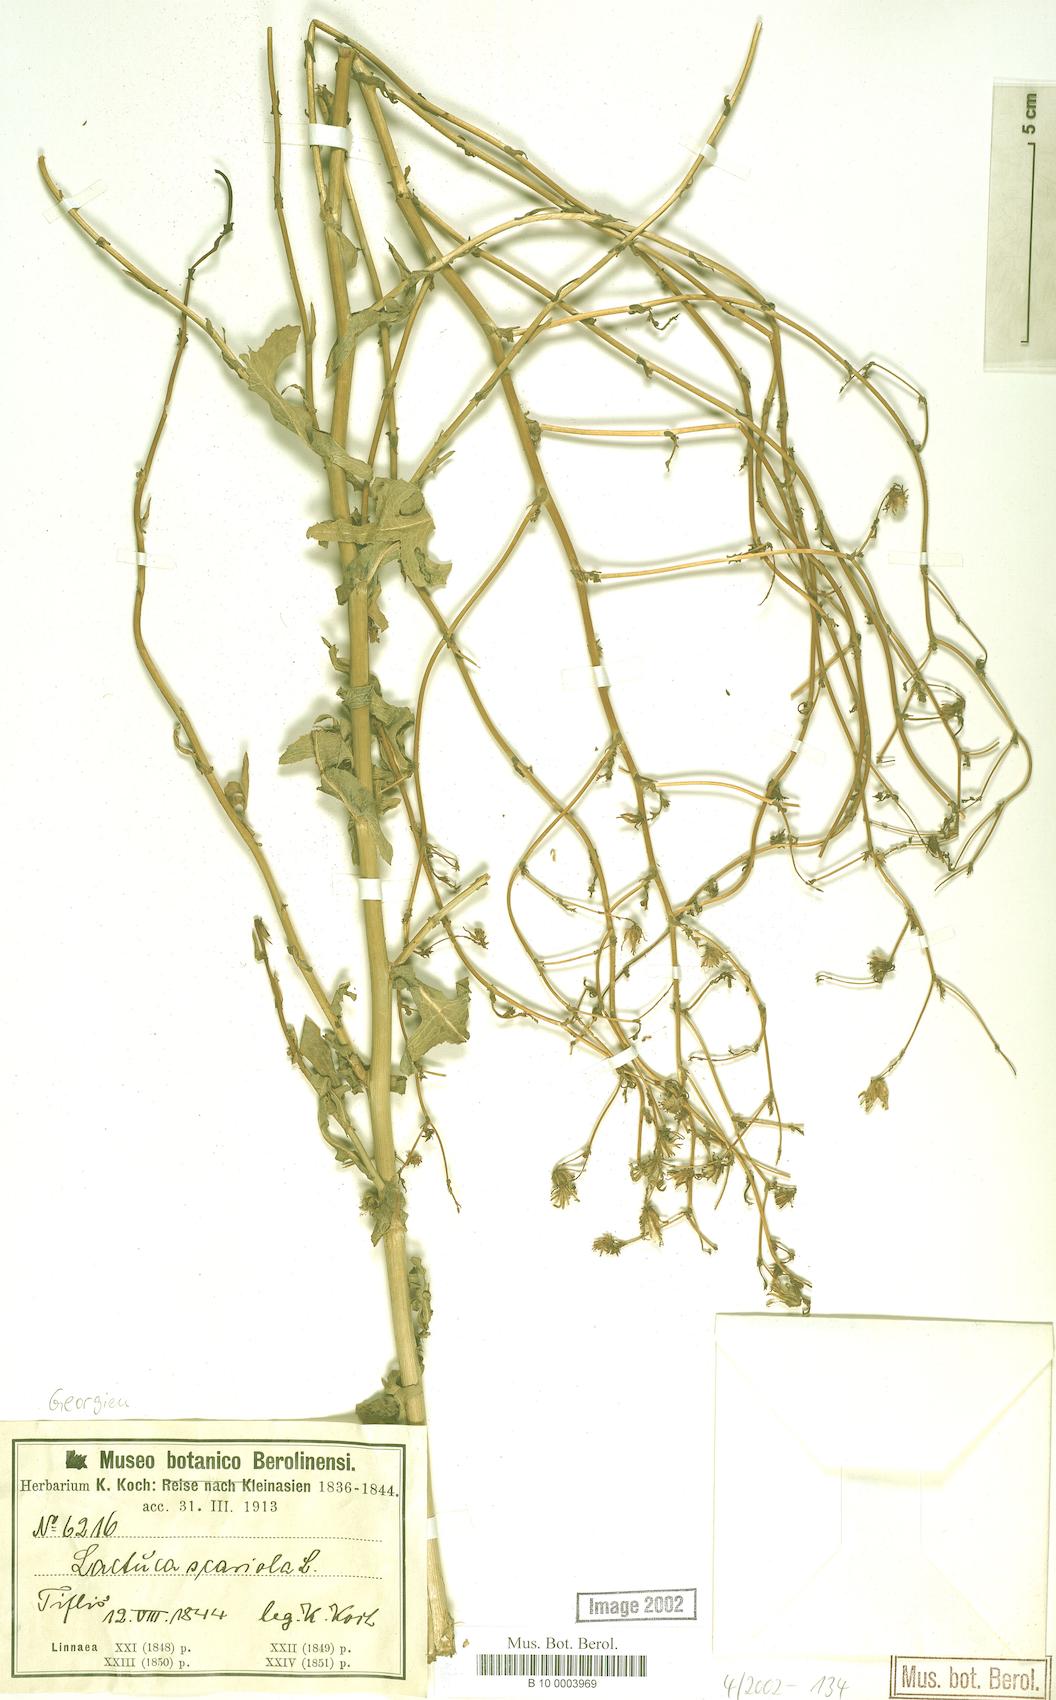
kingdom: Plantae
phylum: Tracheophyta
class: Magnoliopsida
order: Asterales
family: Asteraceae
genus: Lactuca
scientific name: Lactuca serriola
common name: Prickly lettuce
